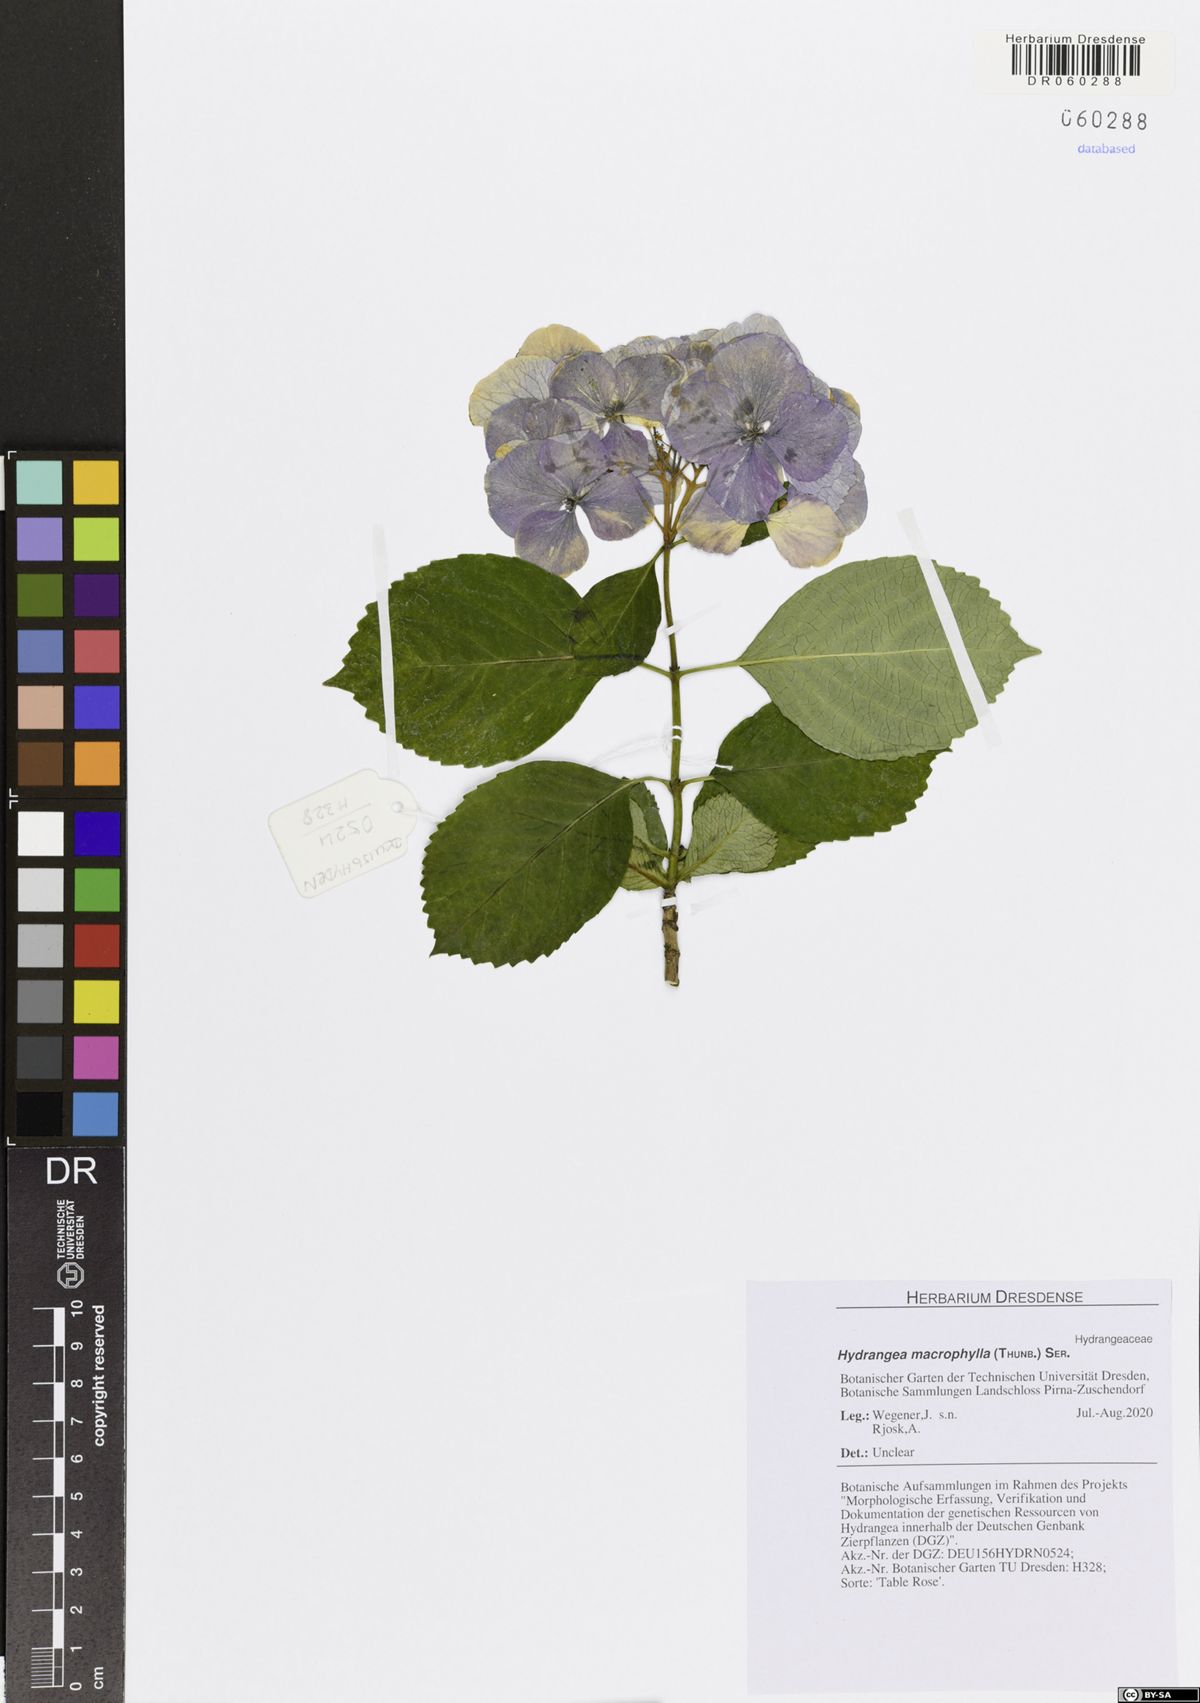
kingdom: Plantae
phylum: Tracheophyta
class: Magnoliopsida
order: Cornales
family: Hydrangeaceae
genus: Hydrangea
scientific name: Hydrangea macrophylla
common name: Hydrangea
